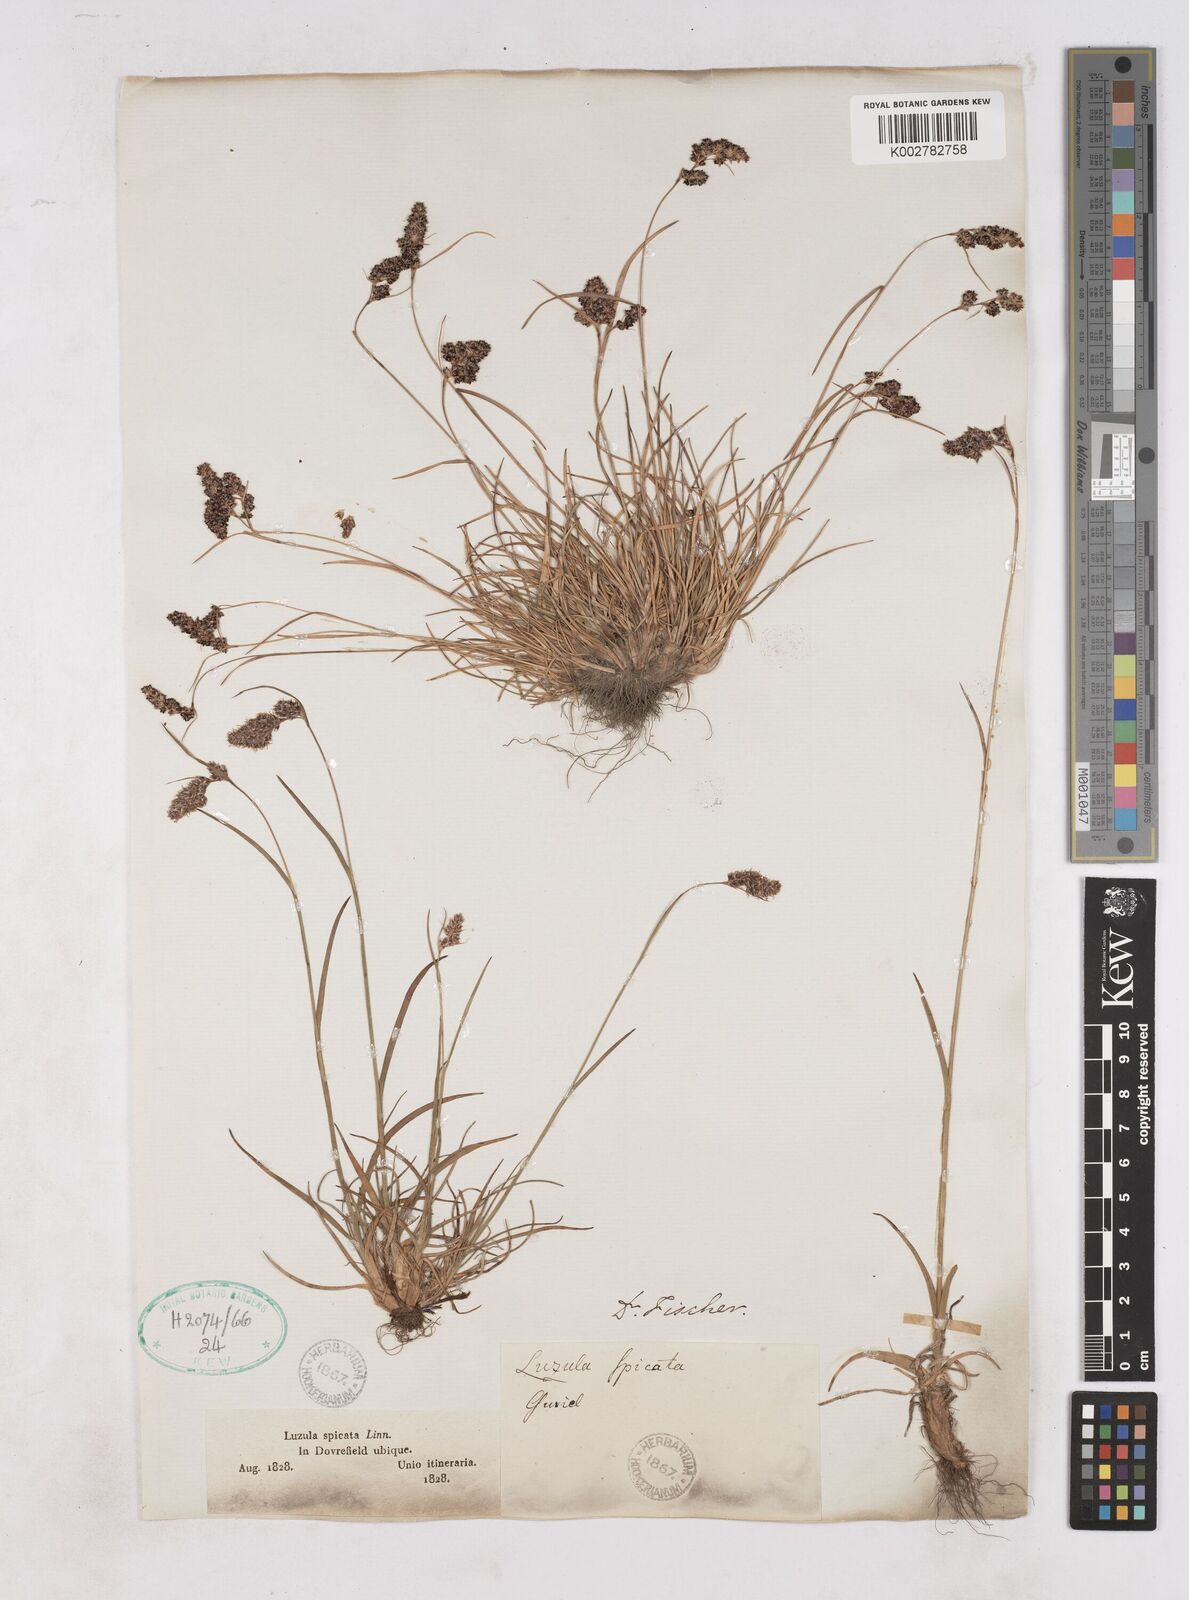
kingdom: Plantae
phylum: Tracheophyta
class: Liliopsida
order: Poales
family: Juncaceae
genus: Luzula
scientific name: Luzula spicata
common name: Spiked wood-rush
